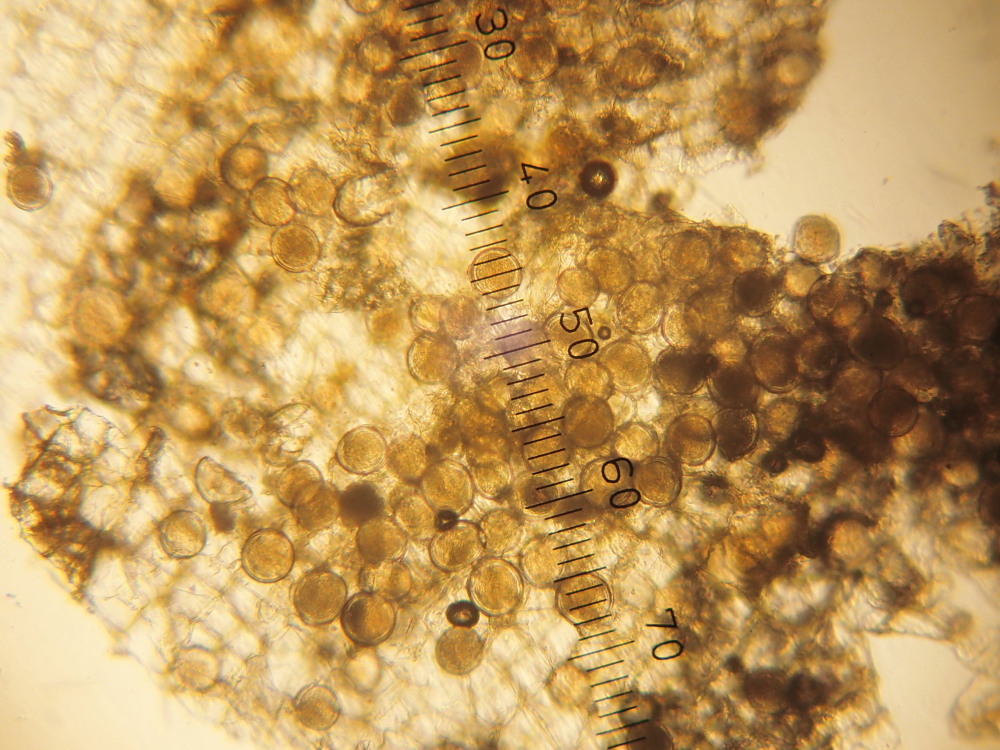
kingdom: Fungi
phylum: Ascomycota
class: Taphrinomycetes
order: Taphrinales
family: Taphrinaceae
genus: Protomyces
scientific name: Protomyces macrosporus
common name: skvalderkål-vablesæk
